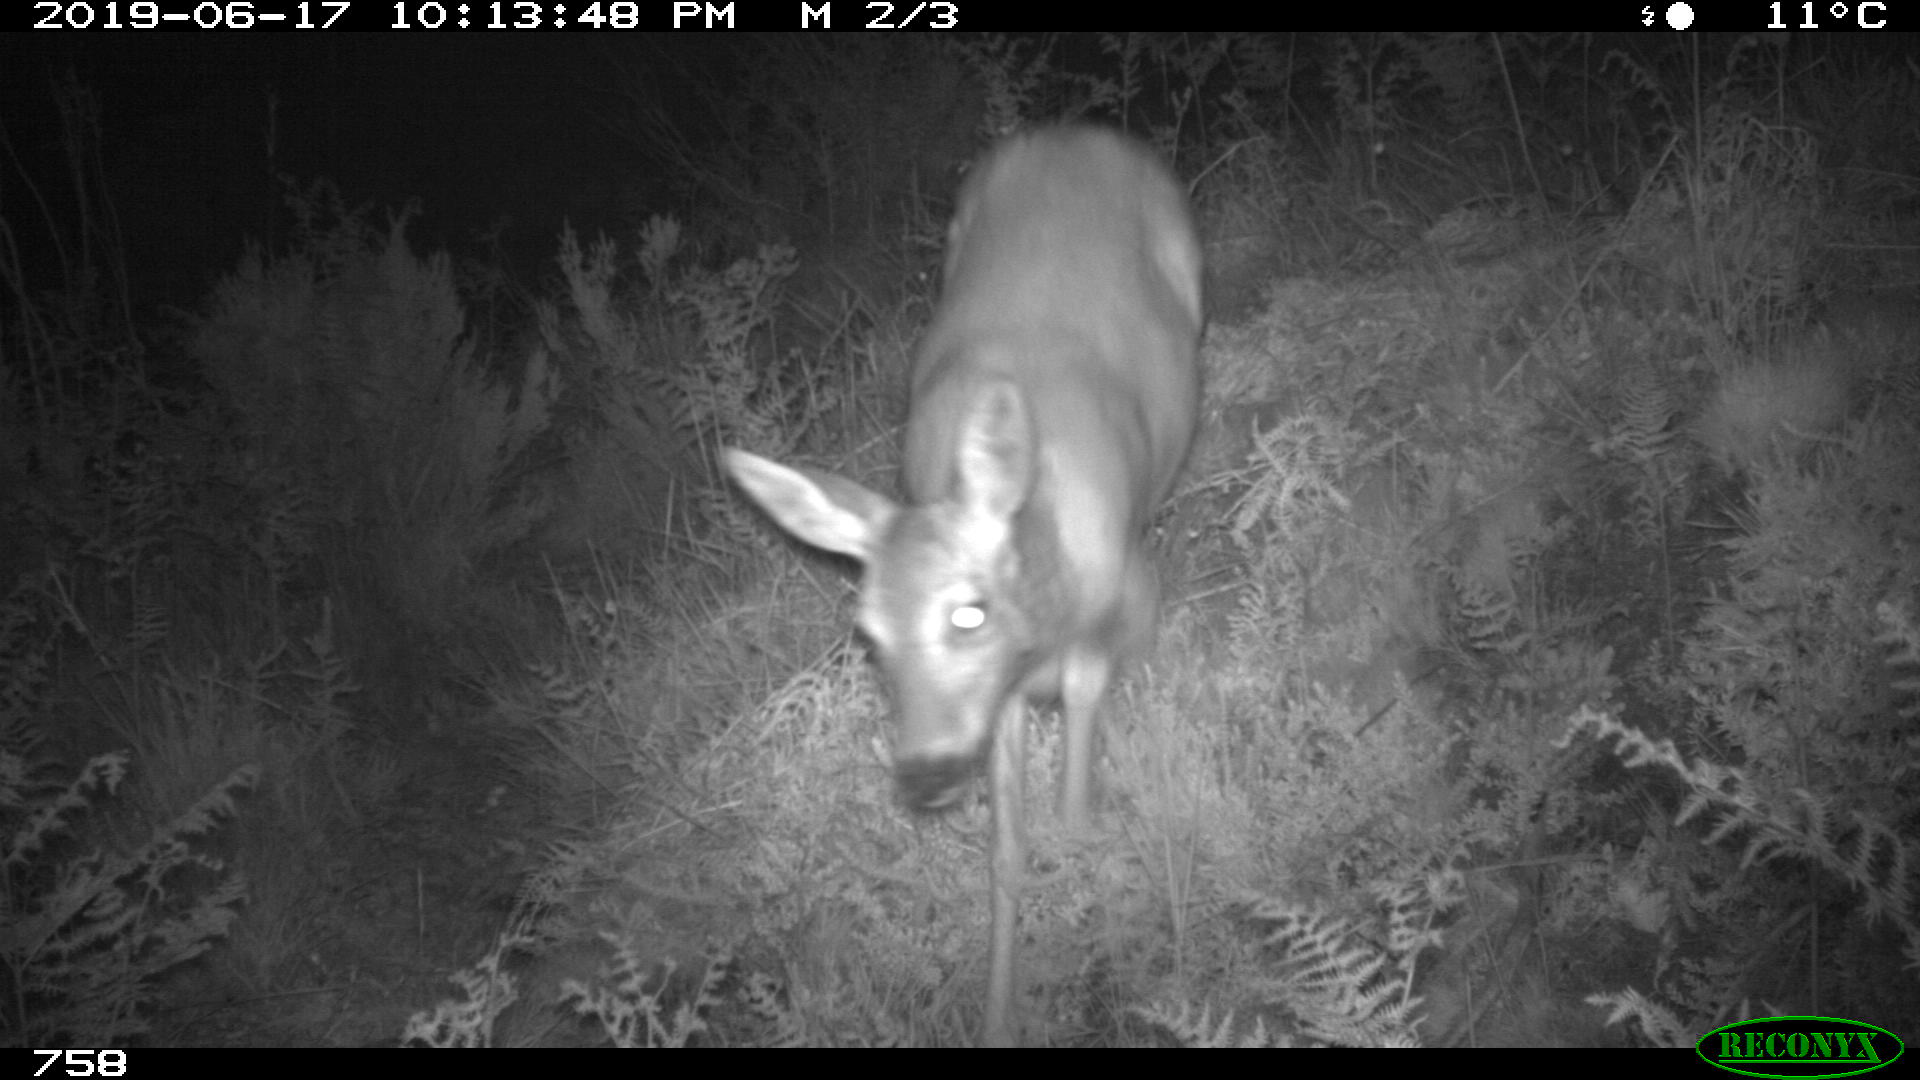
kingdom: Animalia
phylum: Chordata
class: Mammalia
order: Artiodactyla
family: Cervidae
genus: Capreolus
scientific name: Capreolus capreolus
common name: Western roe deer
